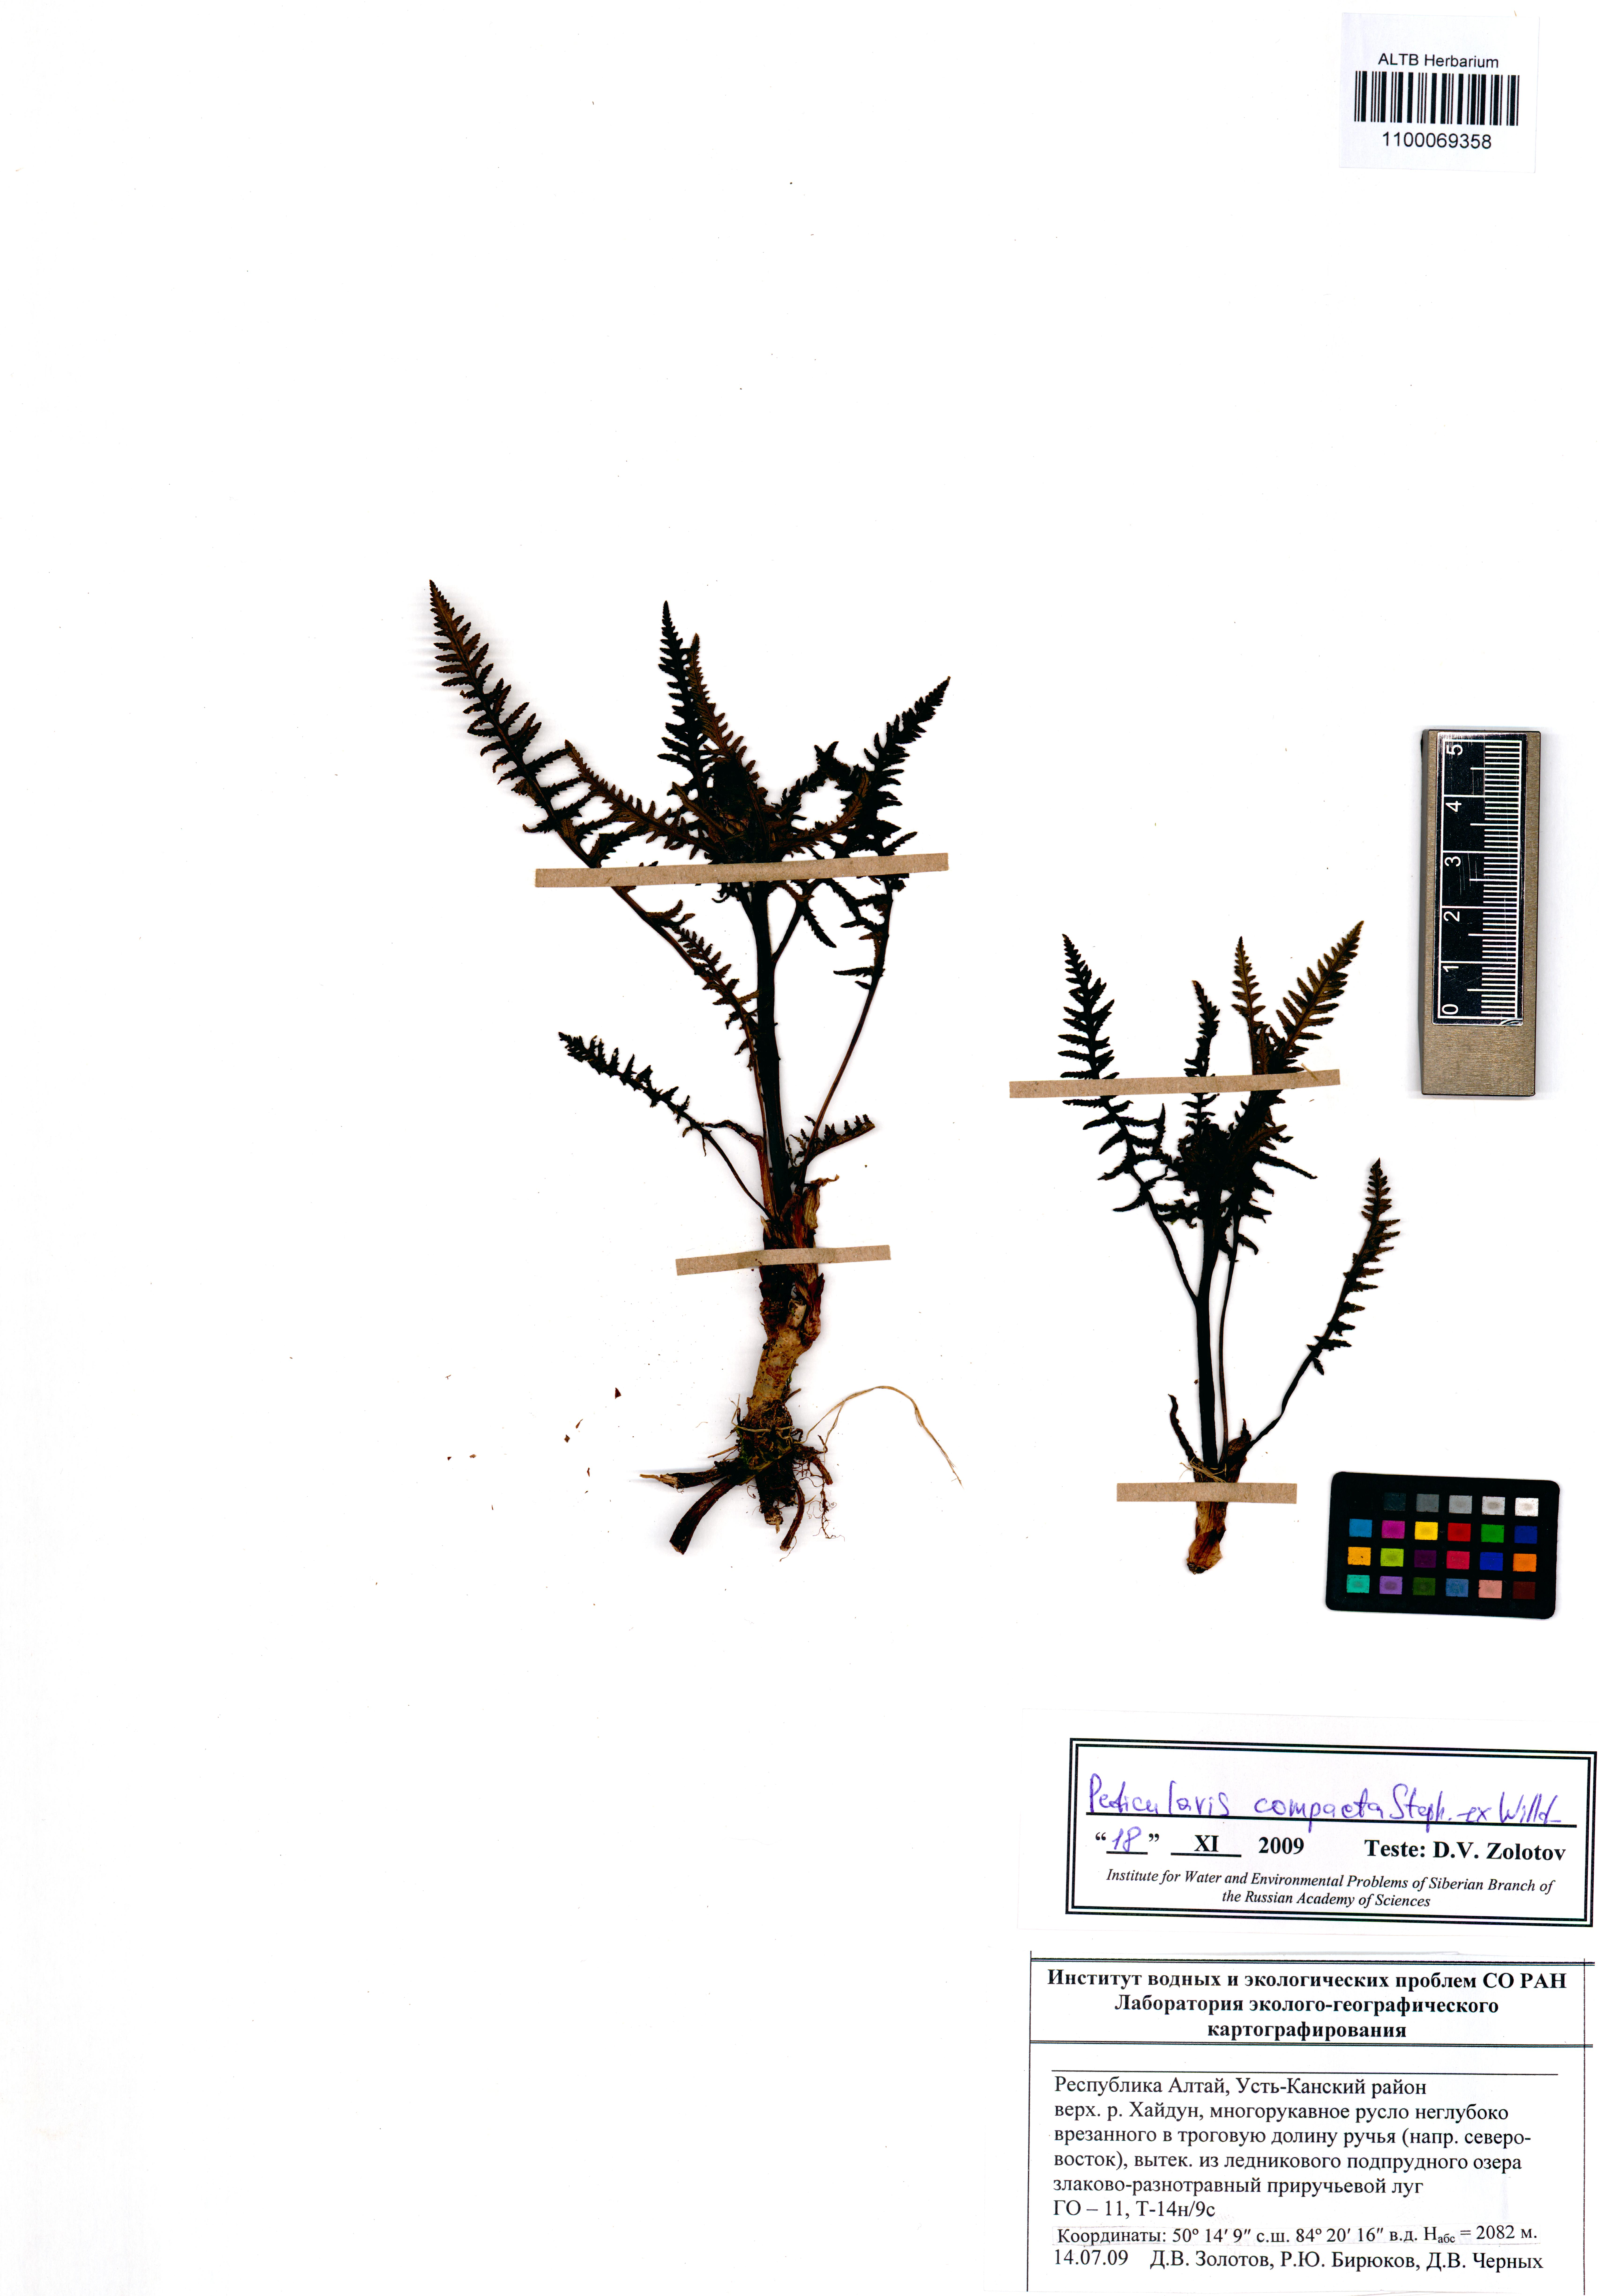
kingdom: Plantae
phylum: Tracheophyta
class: Magnoliopsida
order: Lamiales
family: Orobanchaceae
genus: Pedicularis
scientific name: Pedicularis compacta
